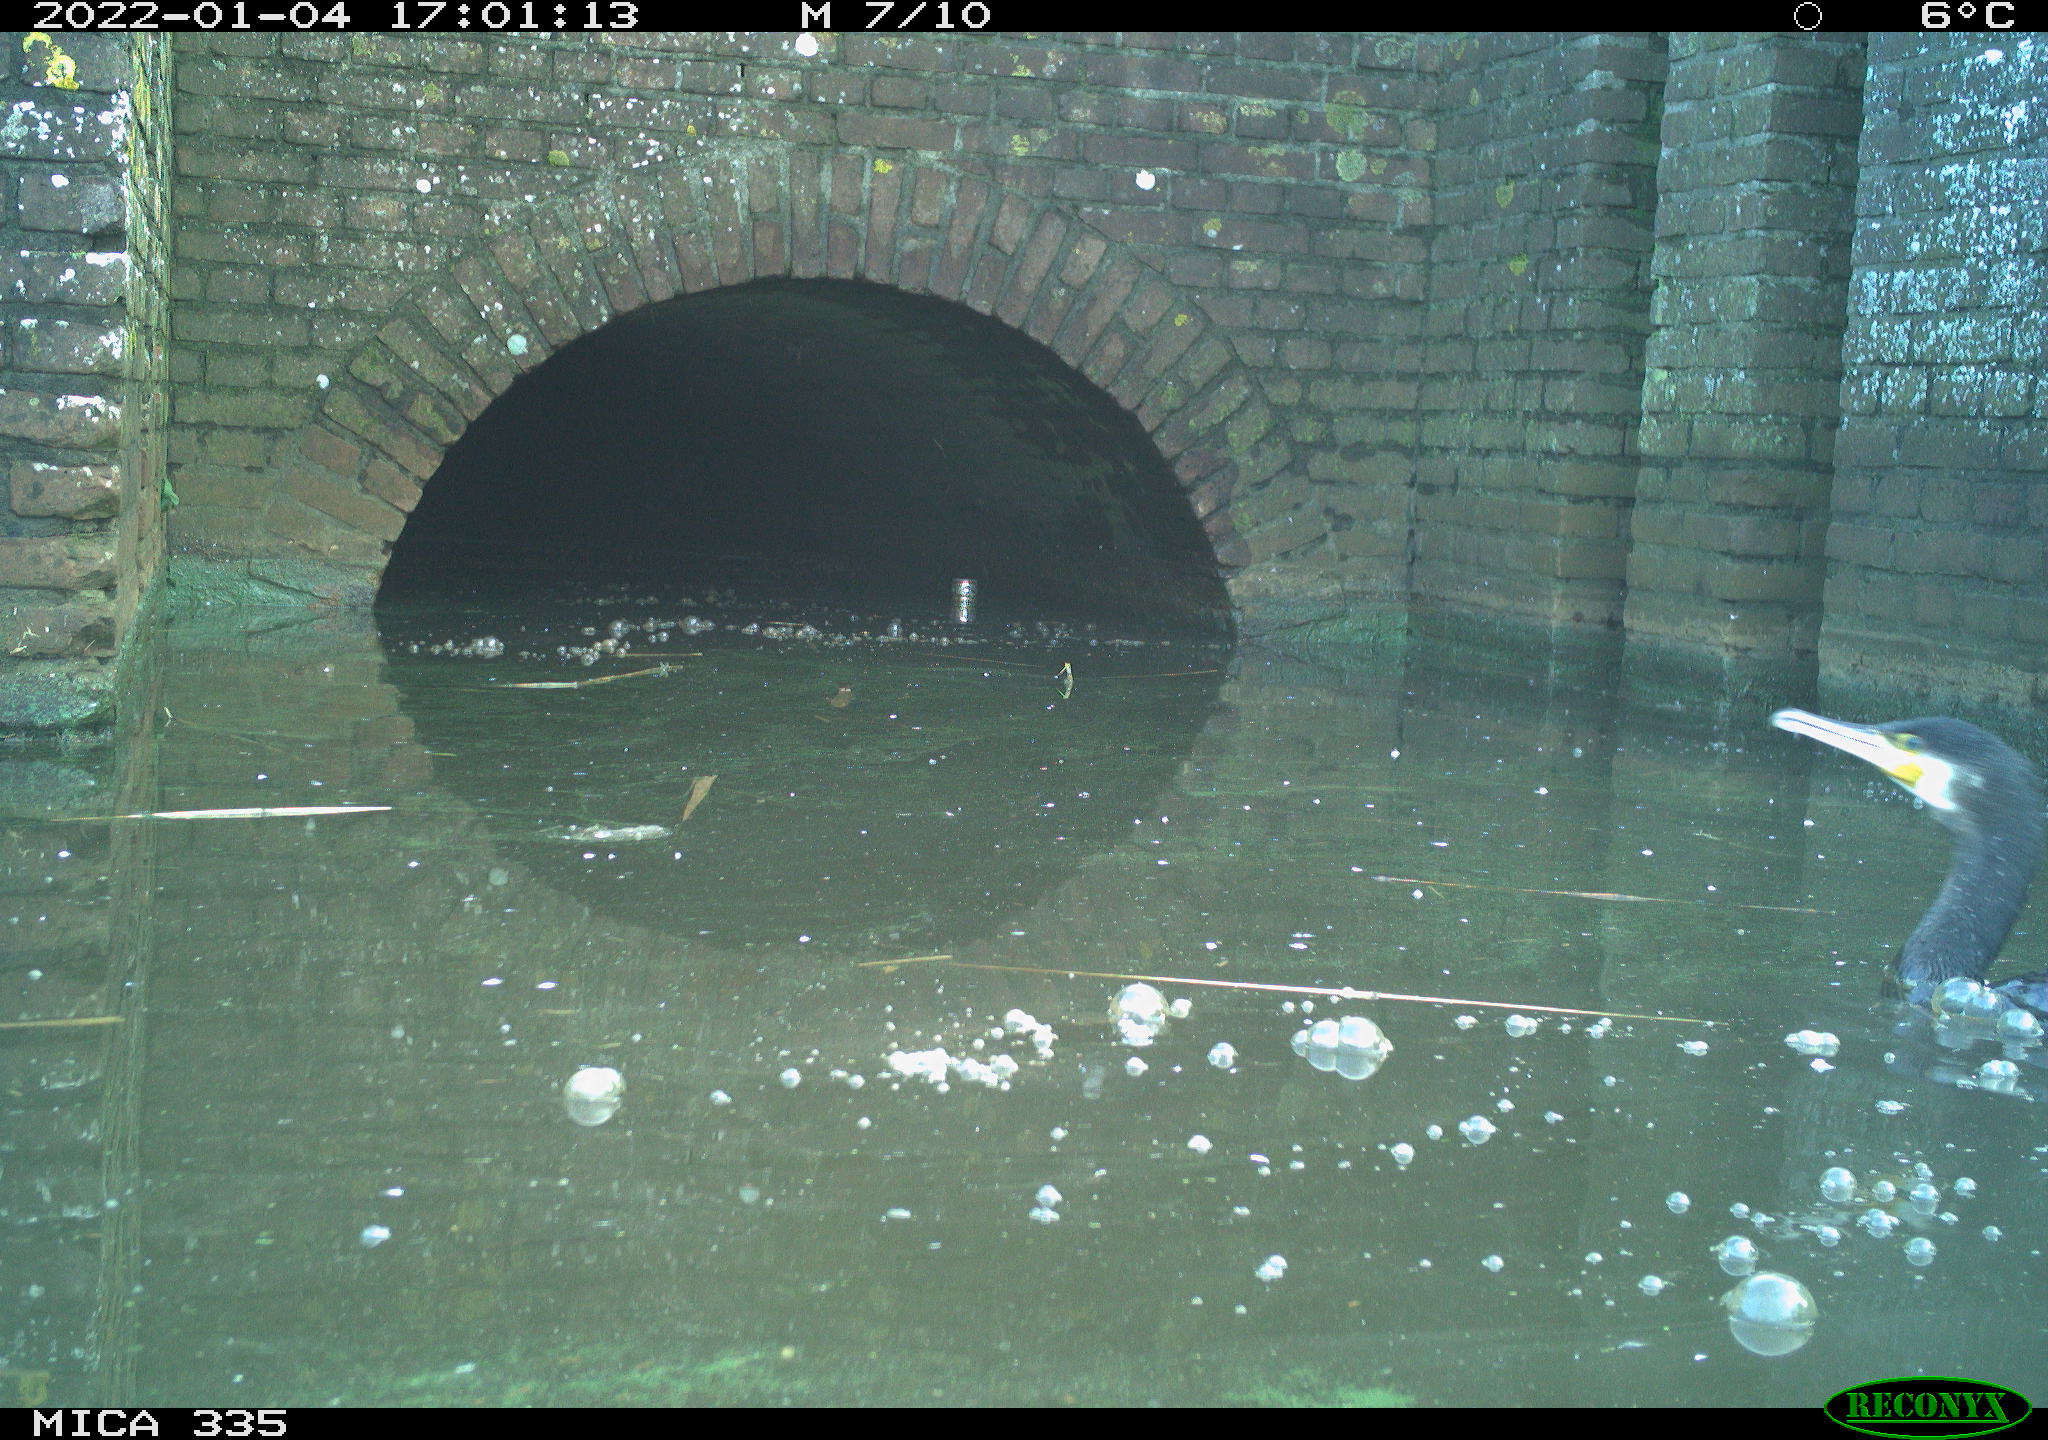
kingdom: Animalia
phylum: Chordata
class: Aves
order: Suliformes
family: Phalacrocoracidae
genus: Phalacrocorax
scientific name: Phalacrocorax carbo
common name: Great cormorant
